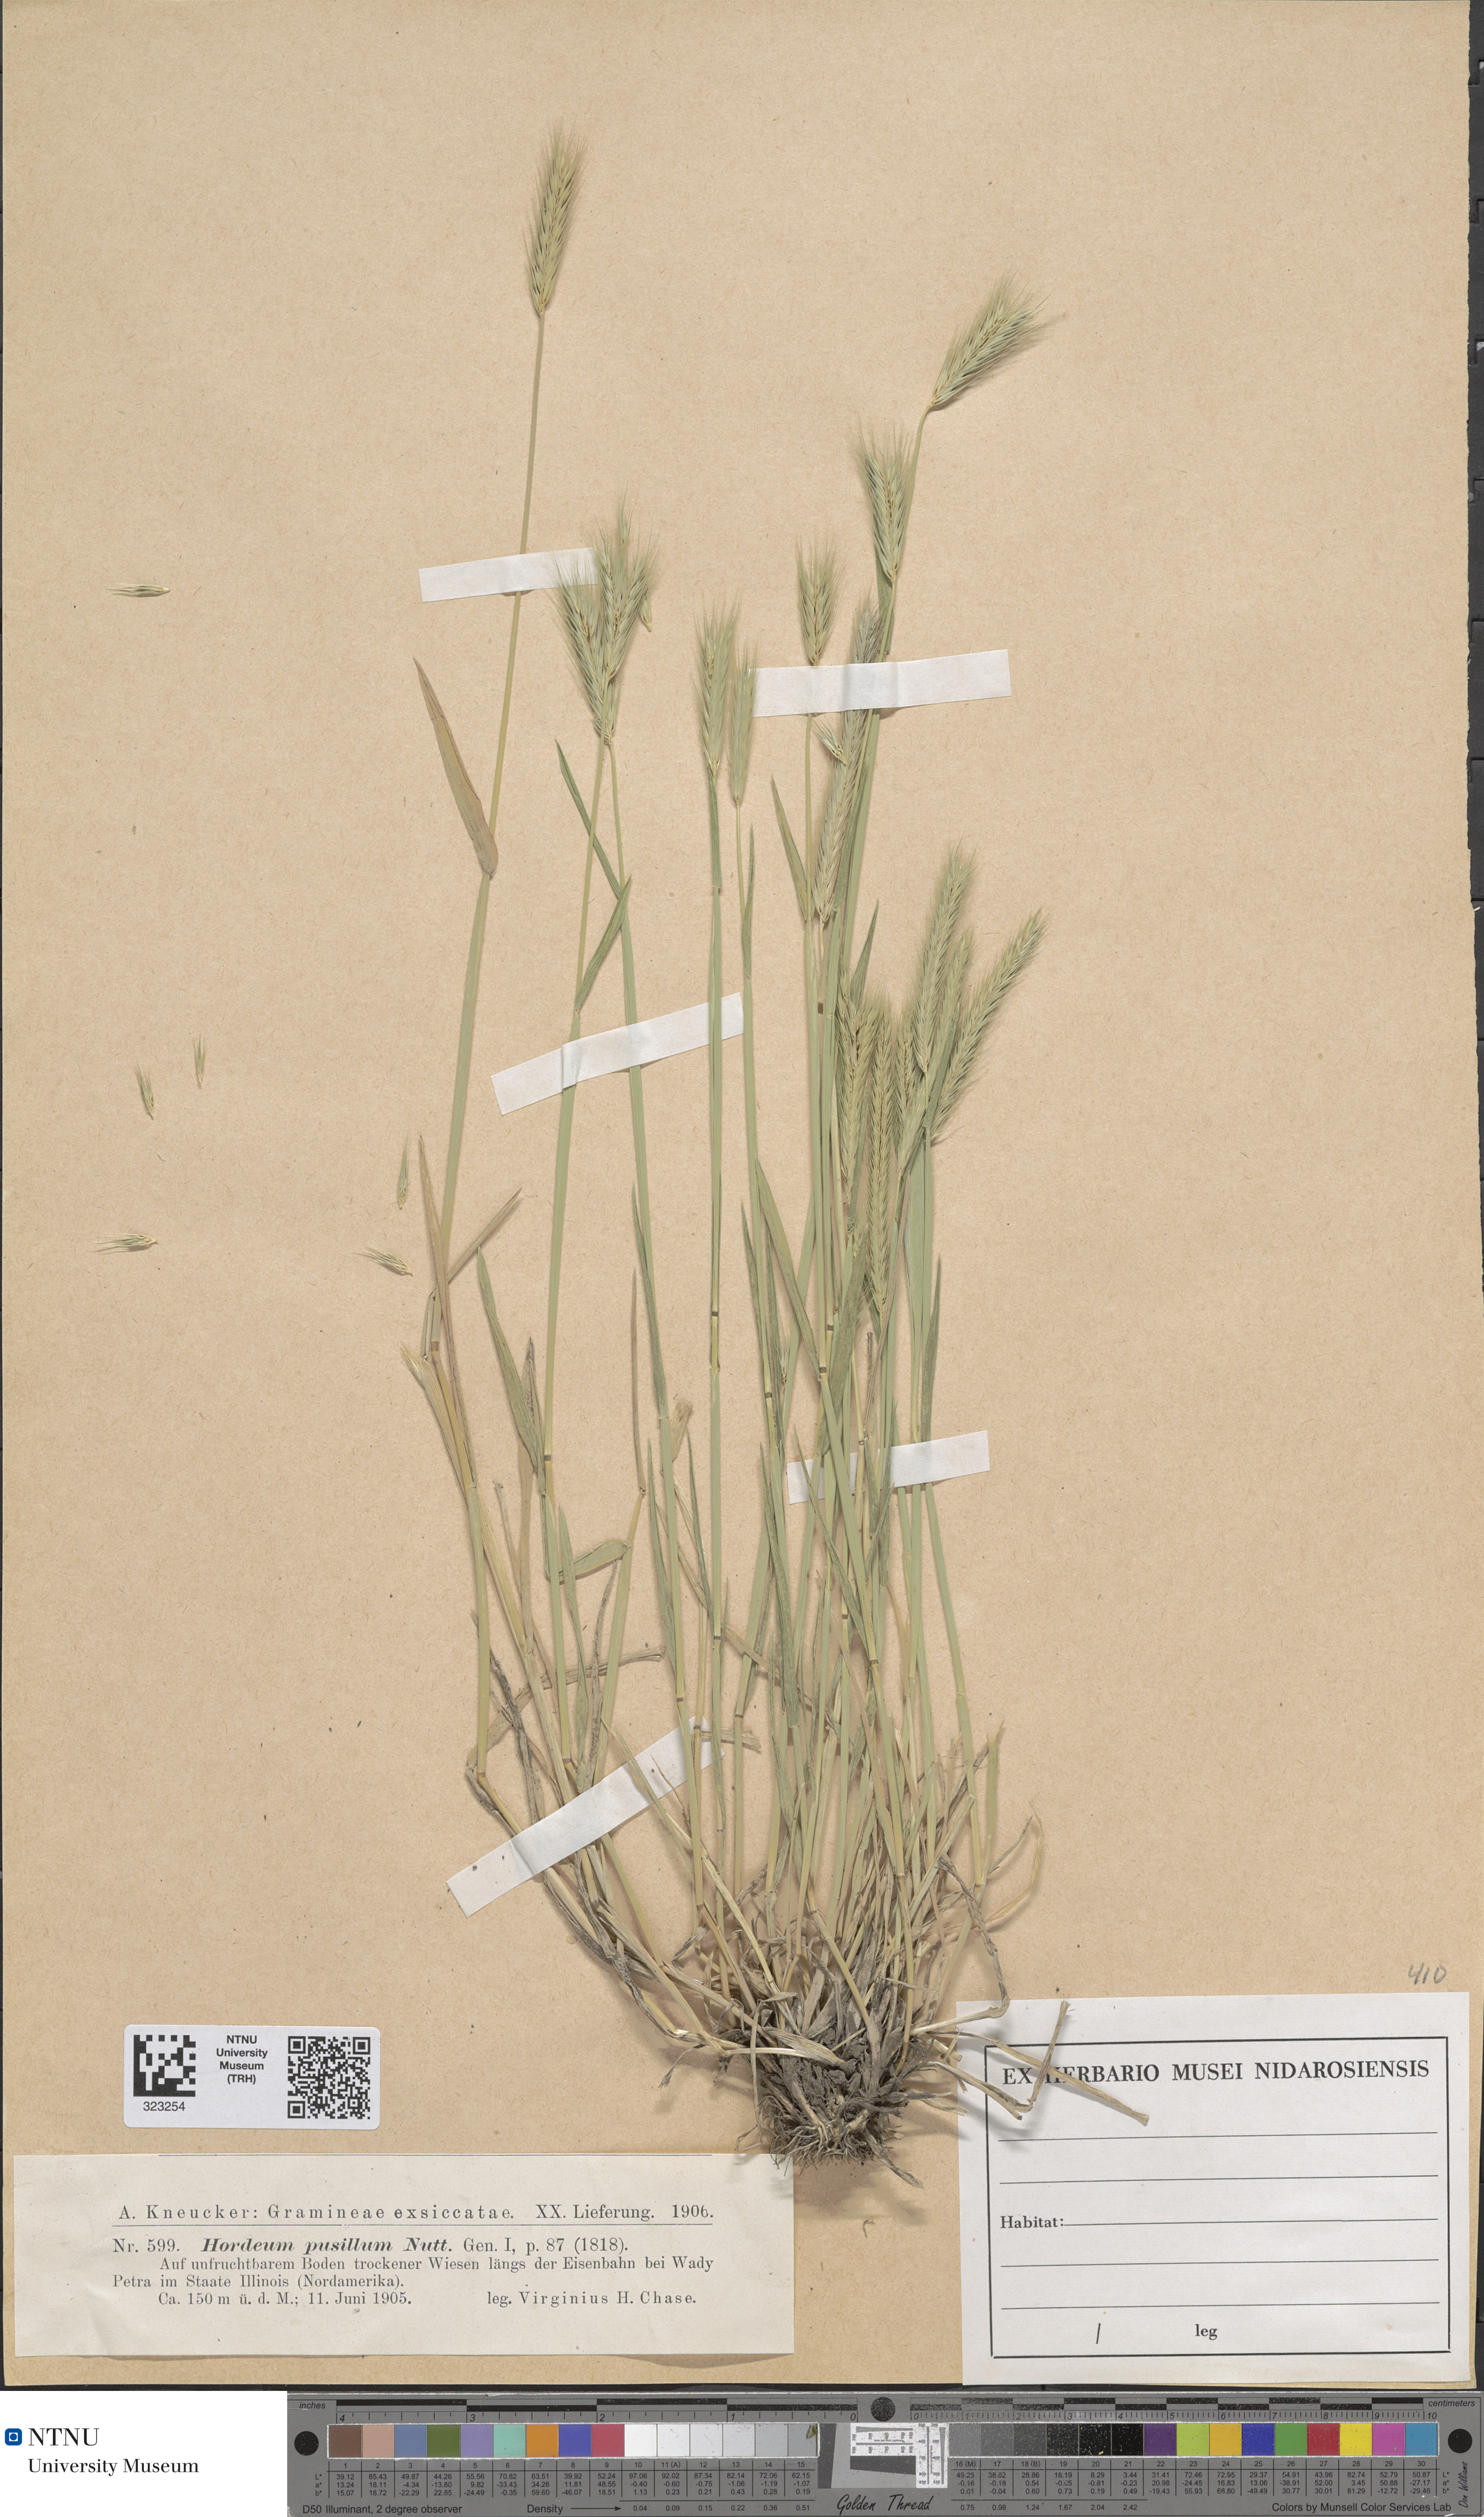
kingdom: Plantae
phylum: Tracheophyta
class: Liliopsida
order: Poales
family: Poaceae
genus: Hordeum
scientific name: Hordeum pusillum
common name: Little barley
